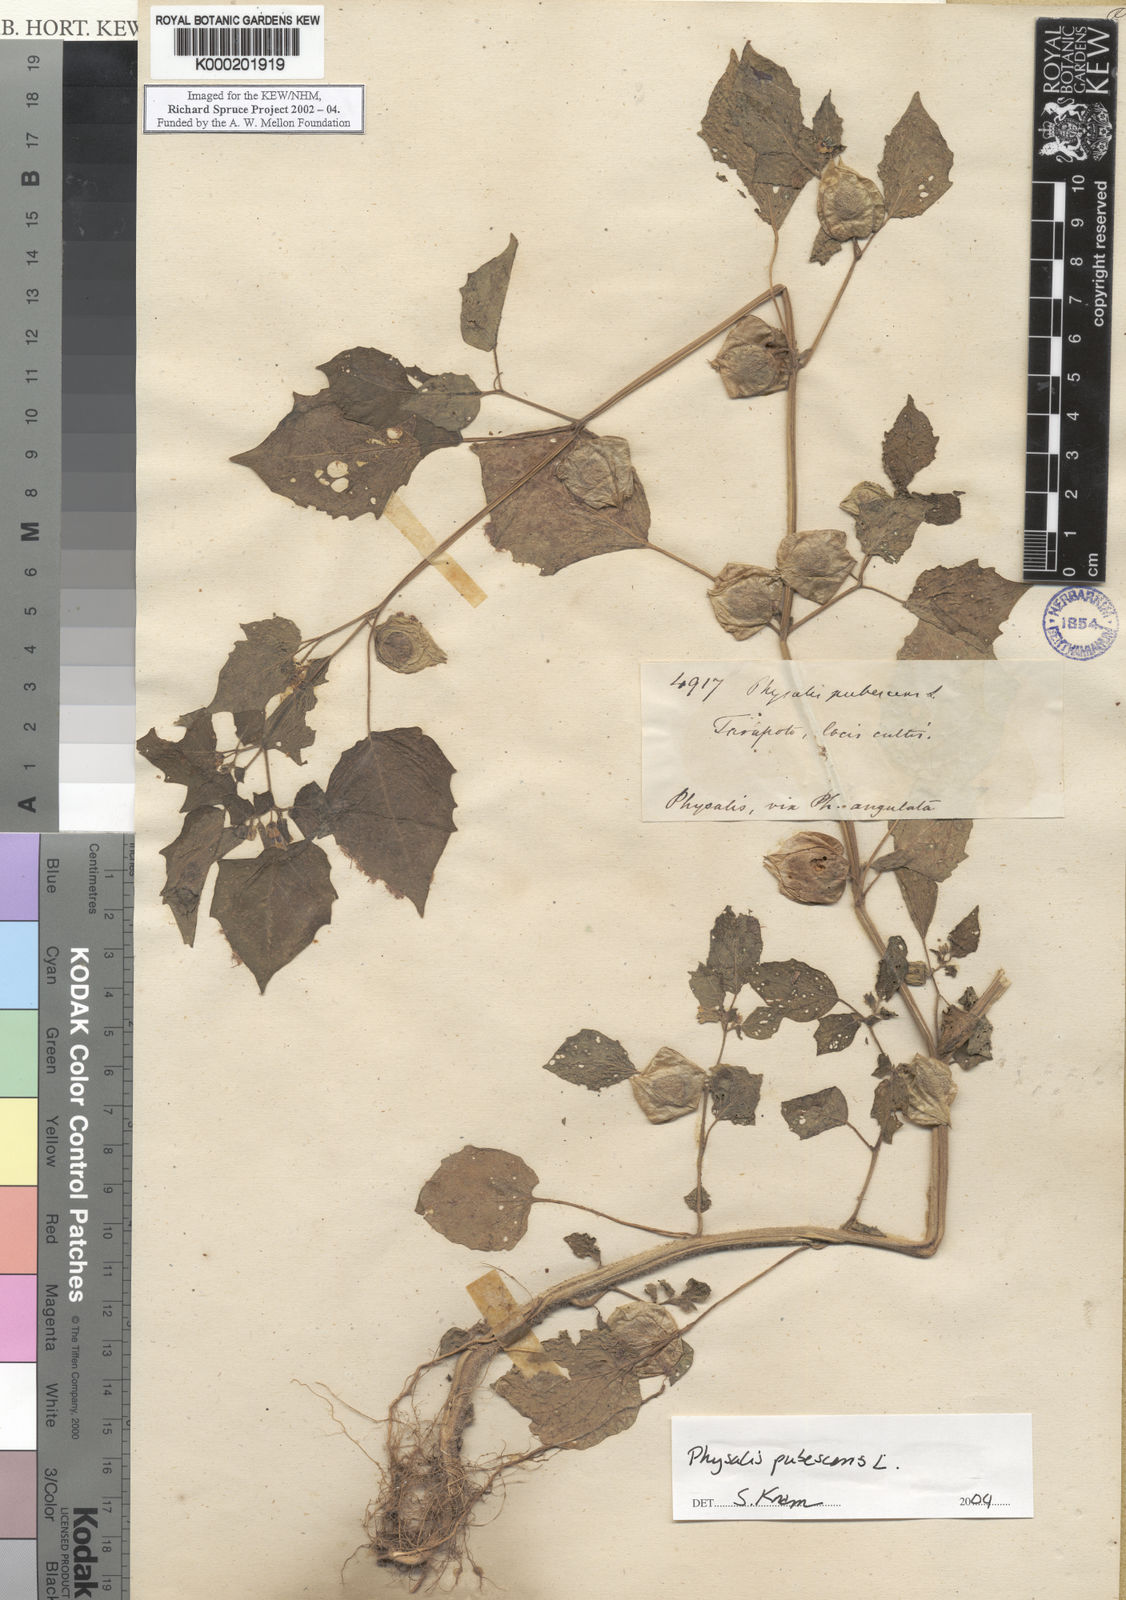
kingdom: Plantae
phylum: Tracheophyta
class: Magnoliopsida
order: Solanales
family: Solanaceae
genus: Physalis
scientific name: Physalis pubescens
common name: Downy ground-cherry
